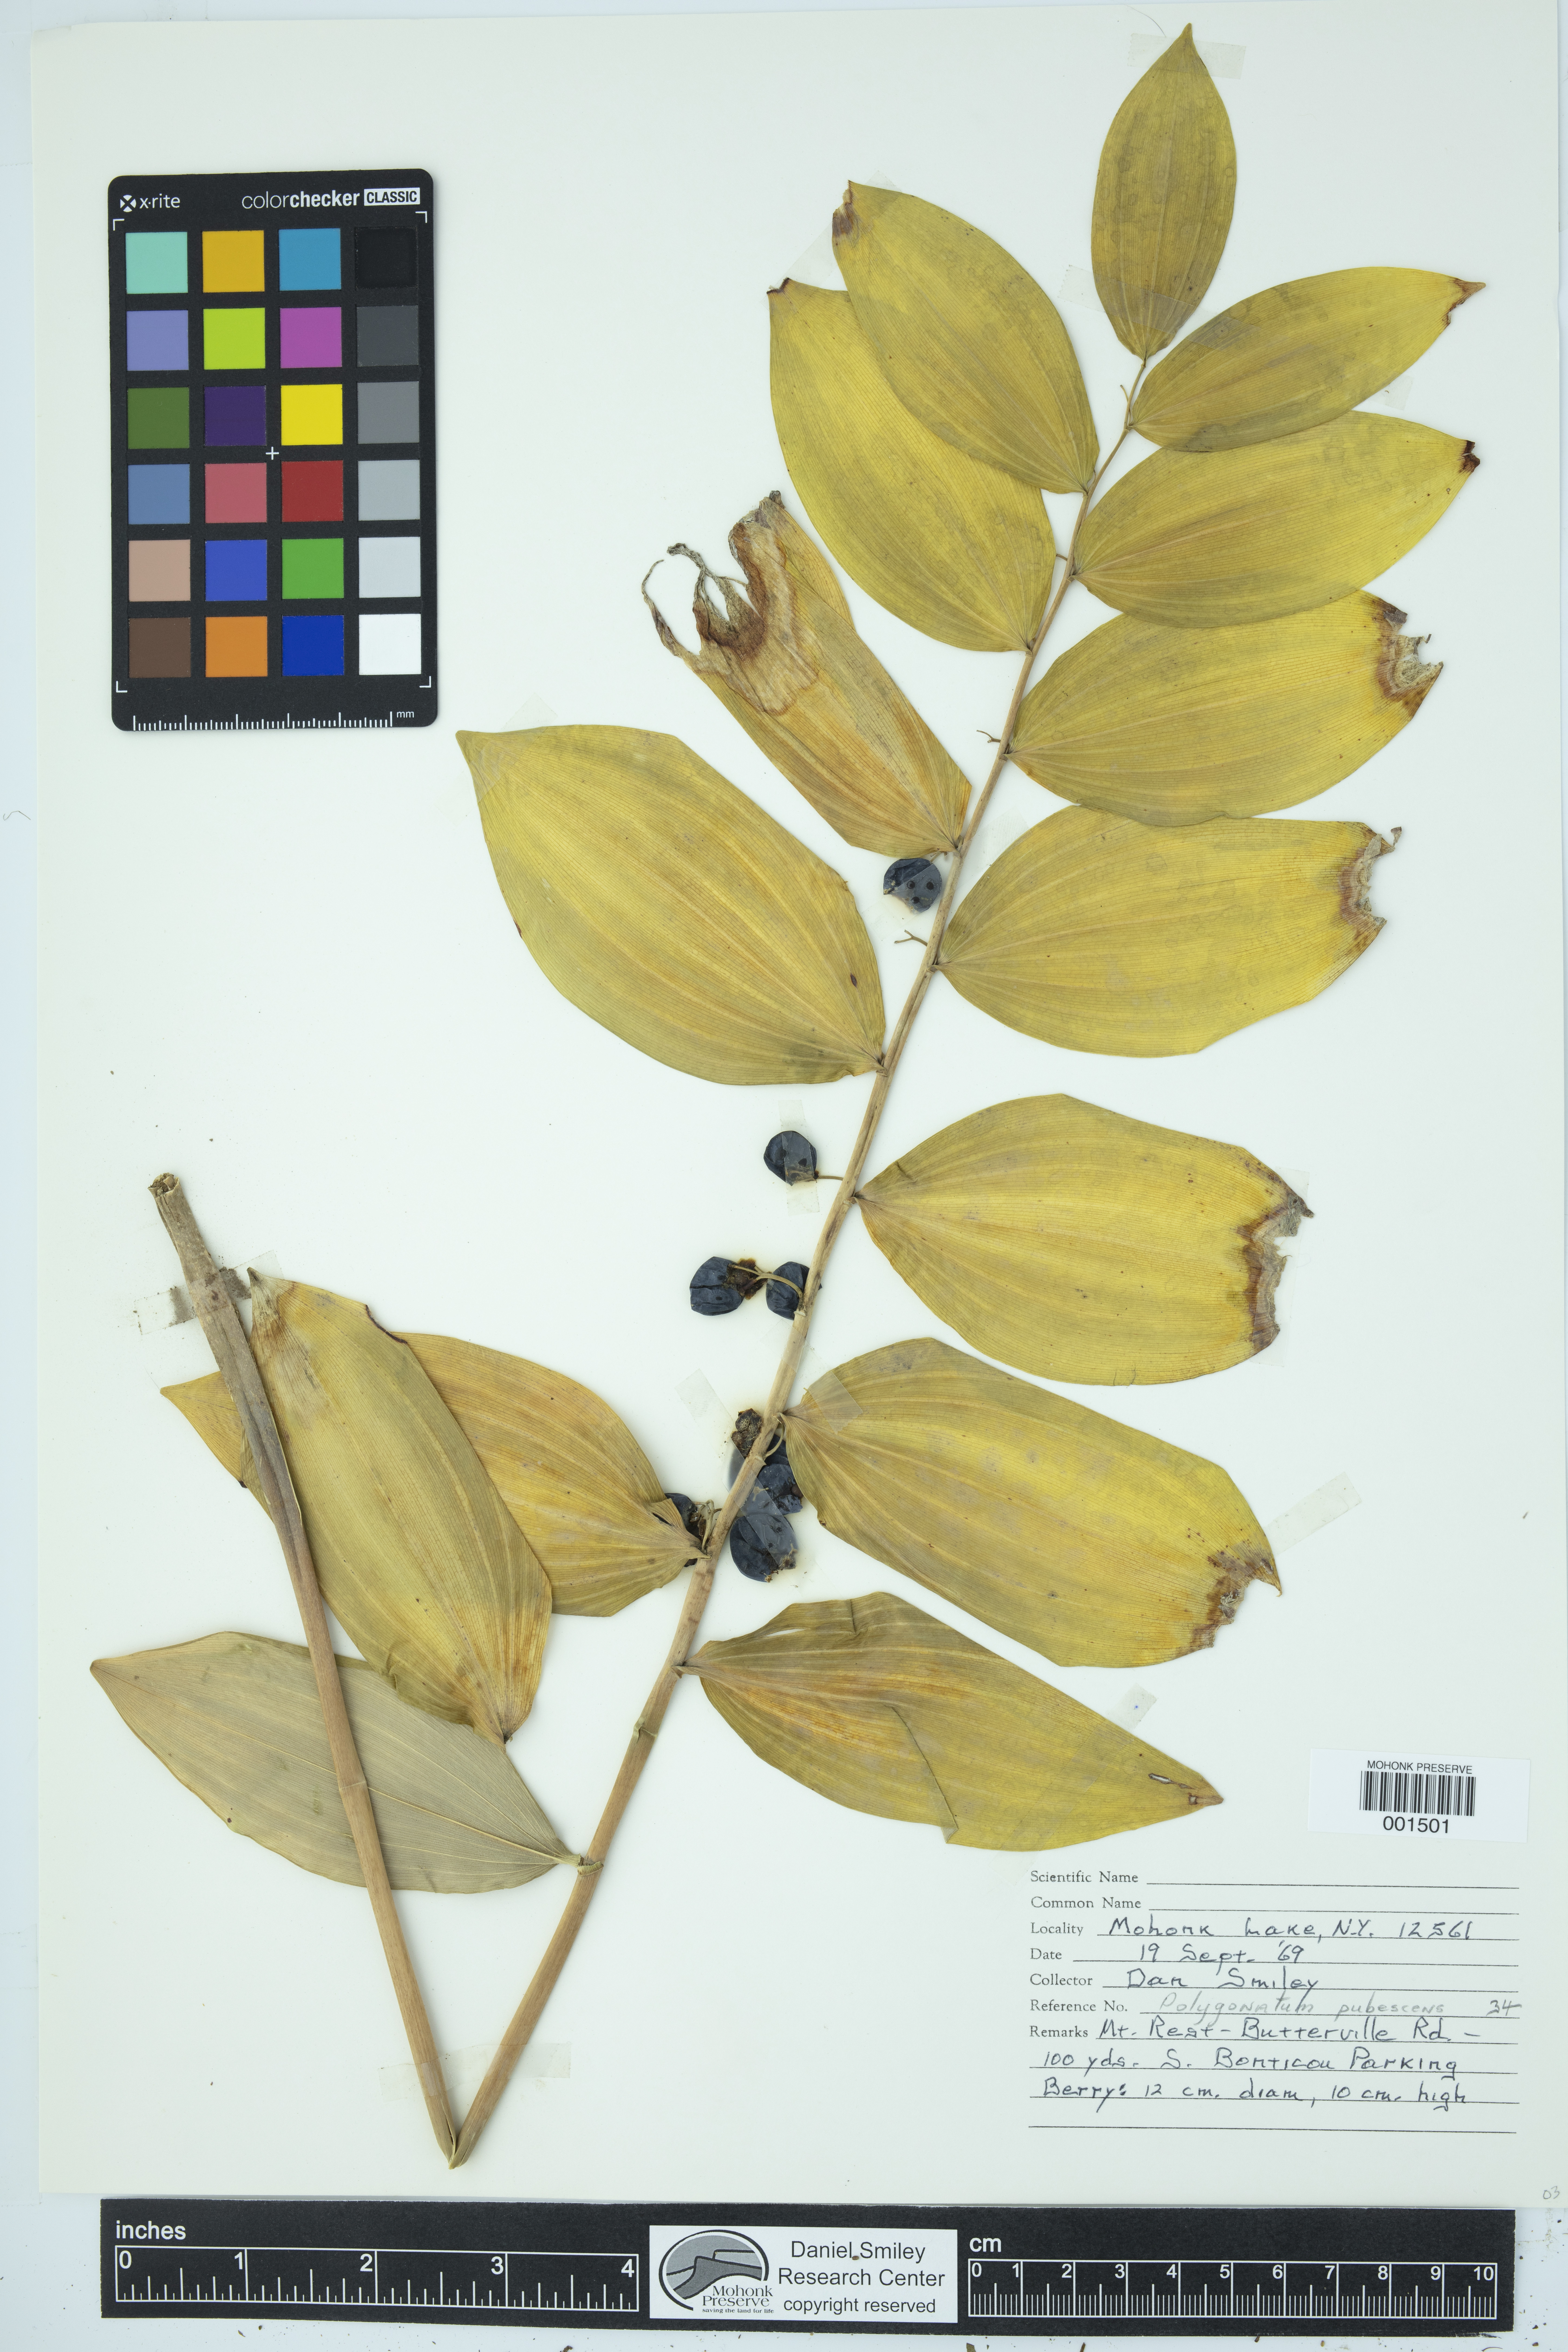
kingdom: Plantae
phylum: Tracheophyta
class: Liliopsida
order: Asparagales
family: Asparagaceae
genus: Polygonatum
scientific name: Polygonatum pubescens
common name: Downy solomon's seal
